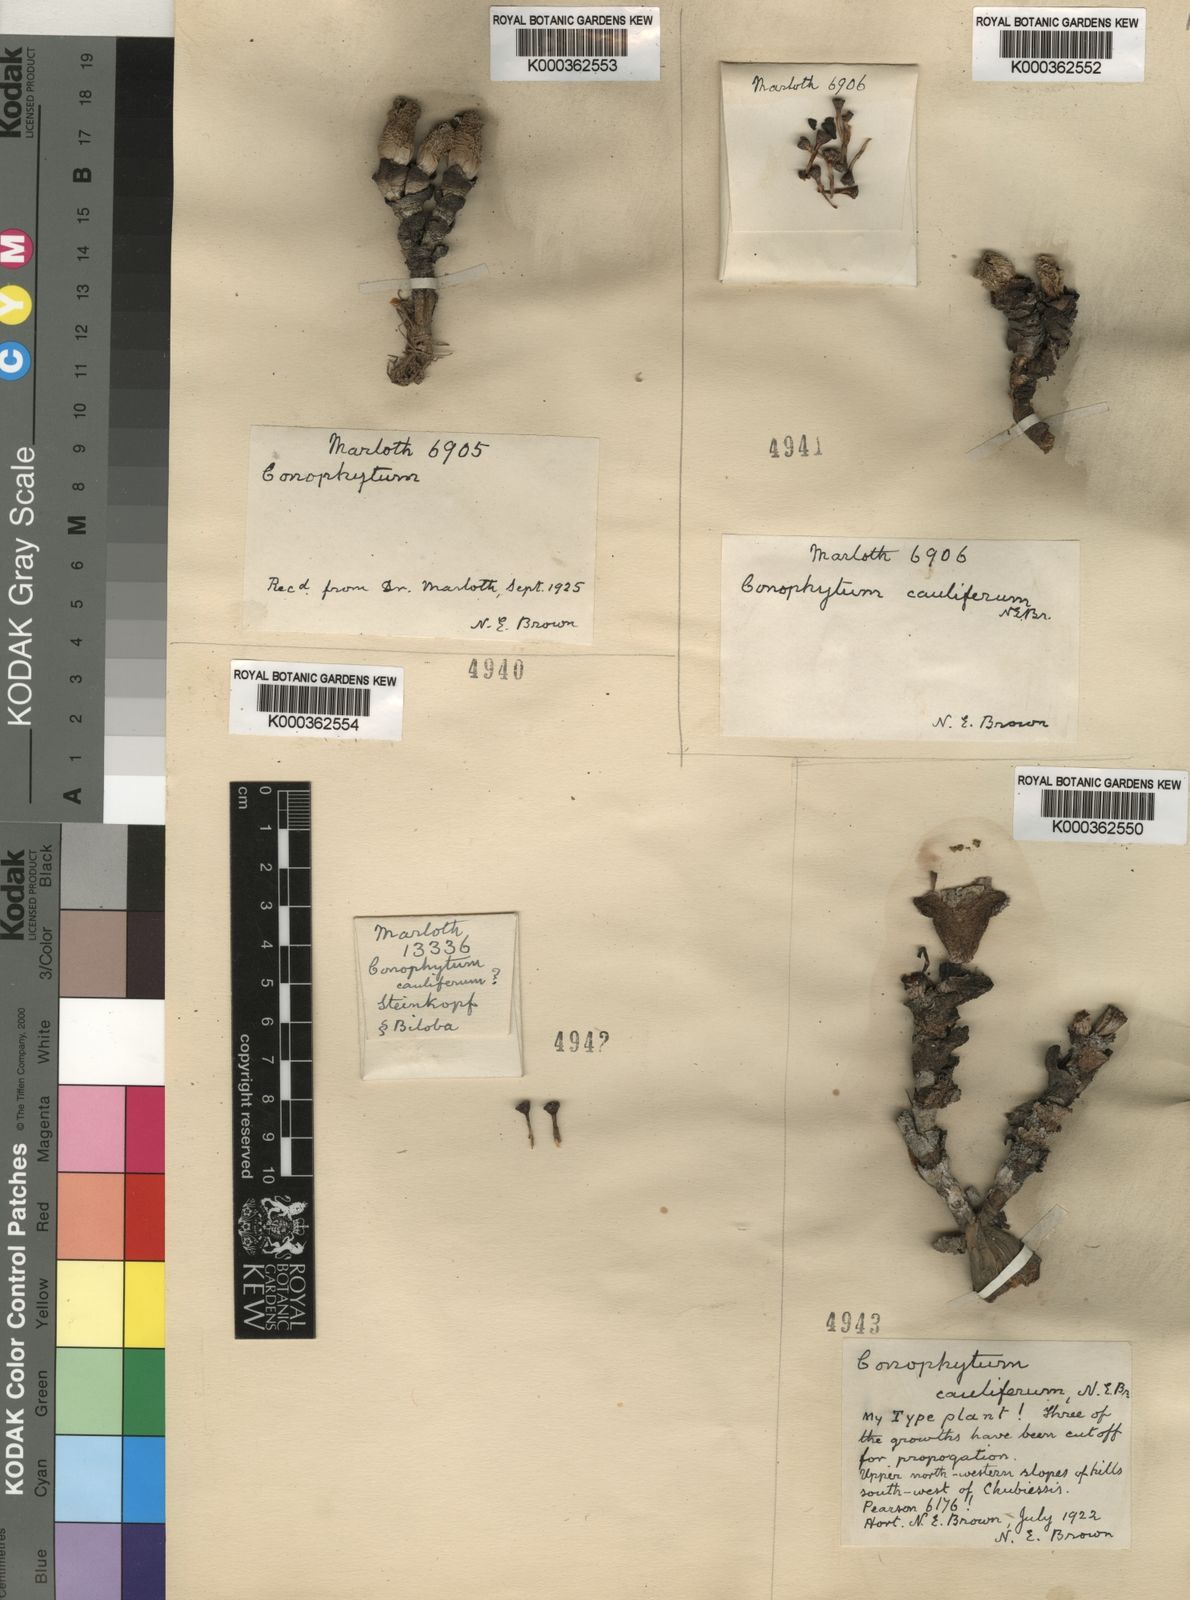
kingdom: Plantae
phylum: Tracheophyta
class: Magnoliopsida
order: Caryophyllales
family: Aizoaceae
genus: Conophytum
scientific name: Conophytum bilobum
